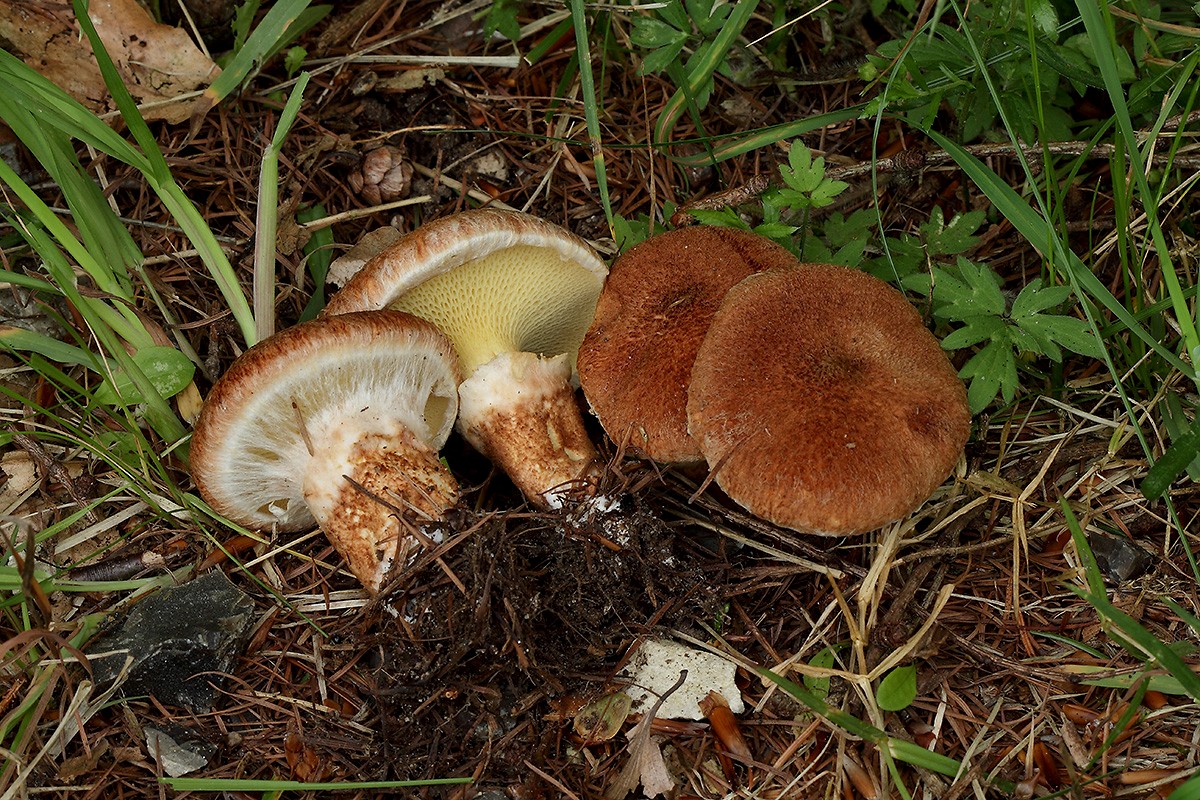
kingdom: Fungi
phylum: Basidiomycota
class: Agaricomycetes
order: Boletales
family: Suillaceae
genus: Suillus
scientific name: Suillus cavipes
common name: hulstokket slimrørhat
